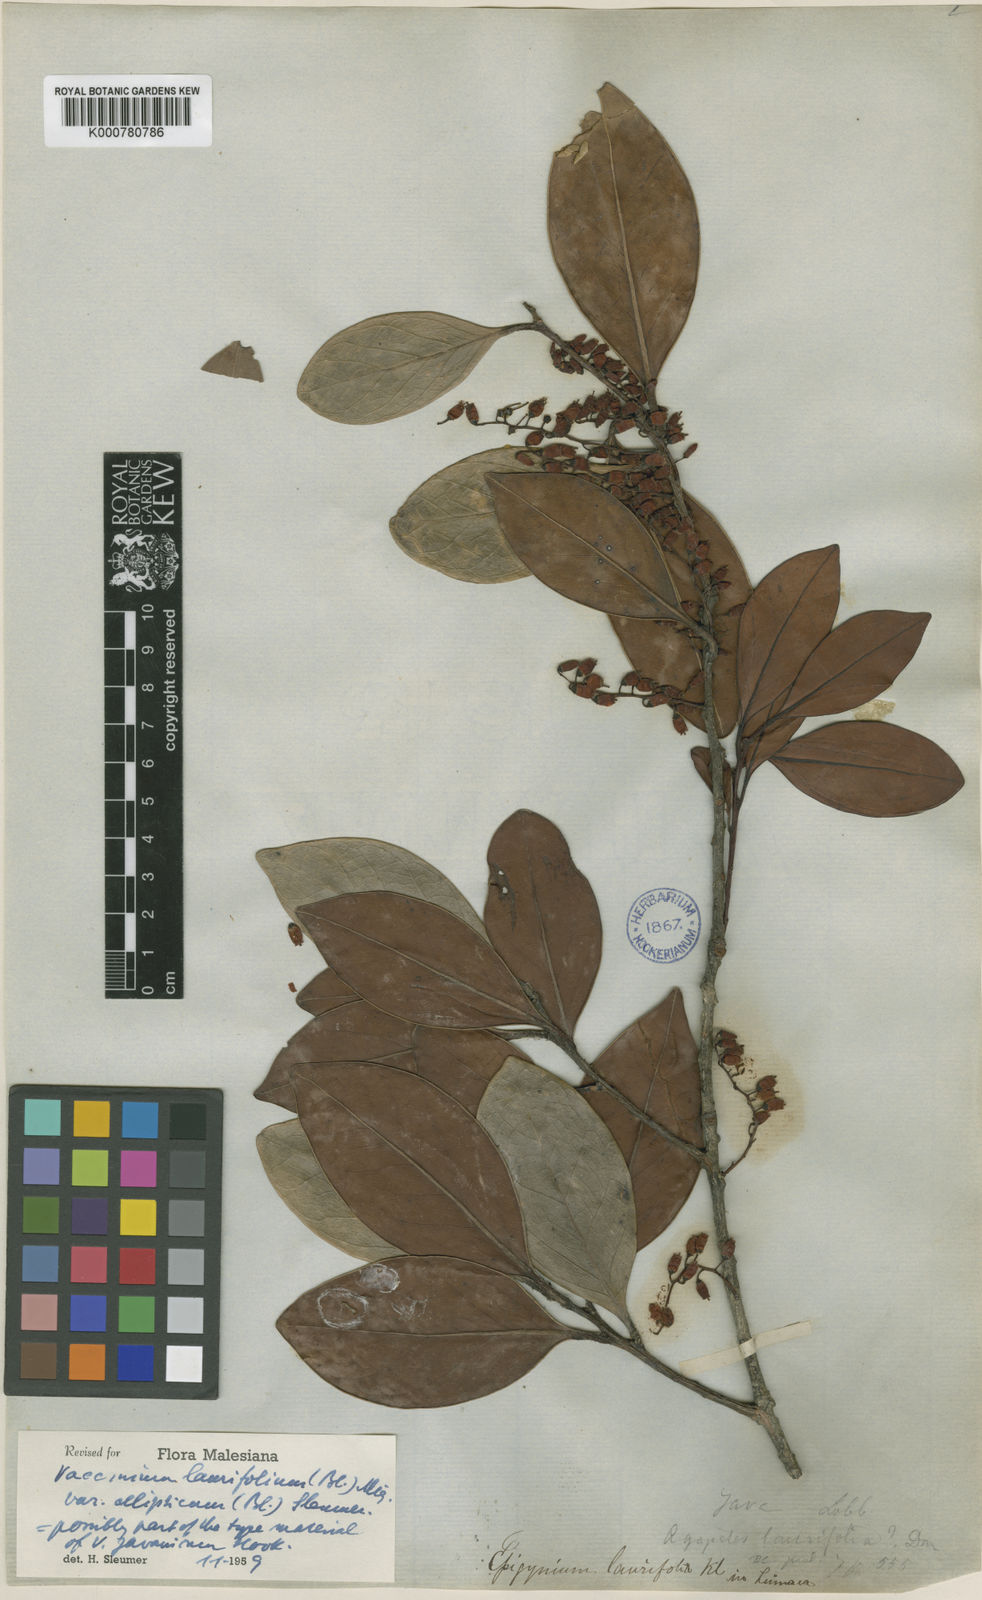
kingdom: Plantae
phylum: Tracheophyta
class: Magnoliopsida
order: Ericales
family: Ericaceae
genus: Vaccinium
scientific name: Vaccinium laurifolium
